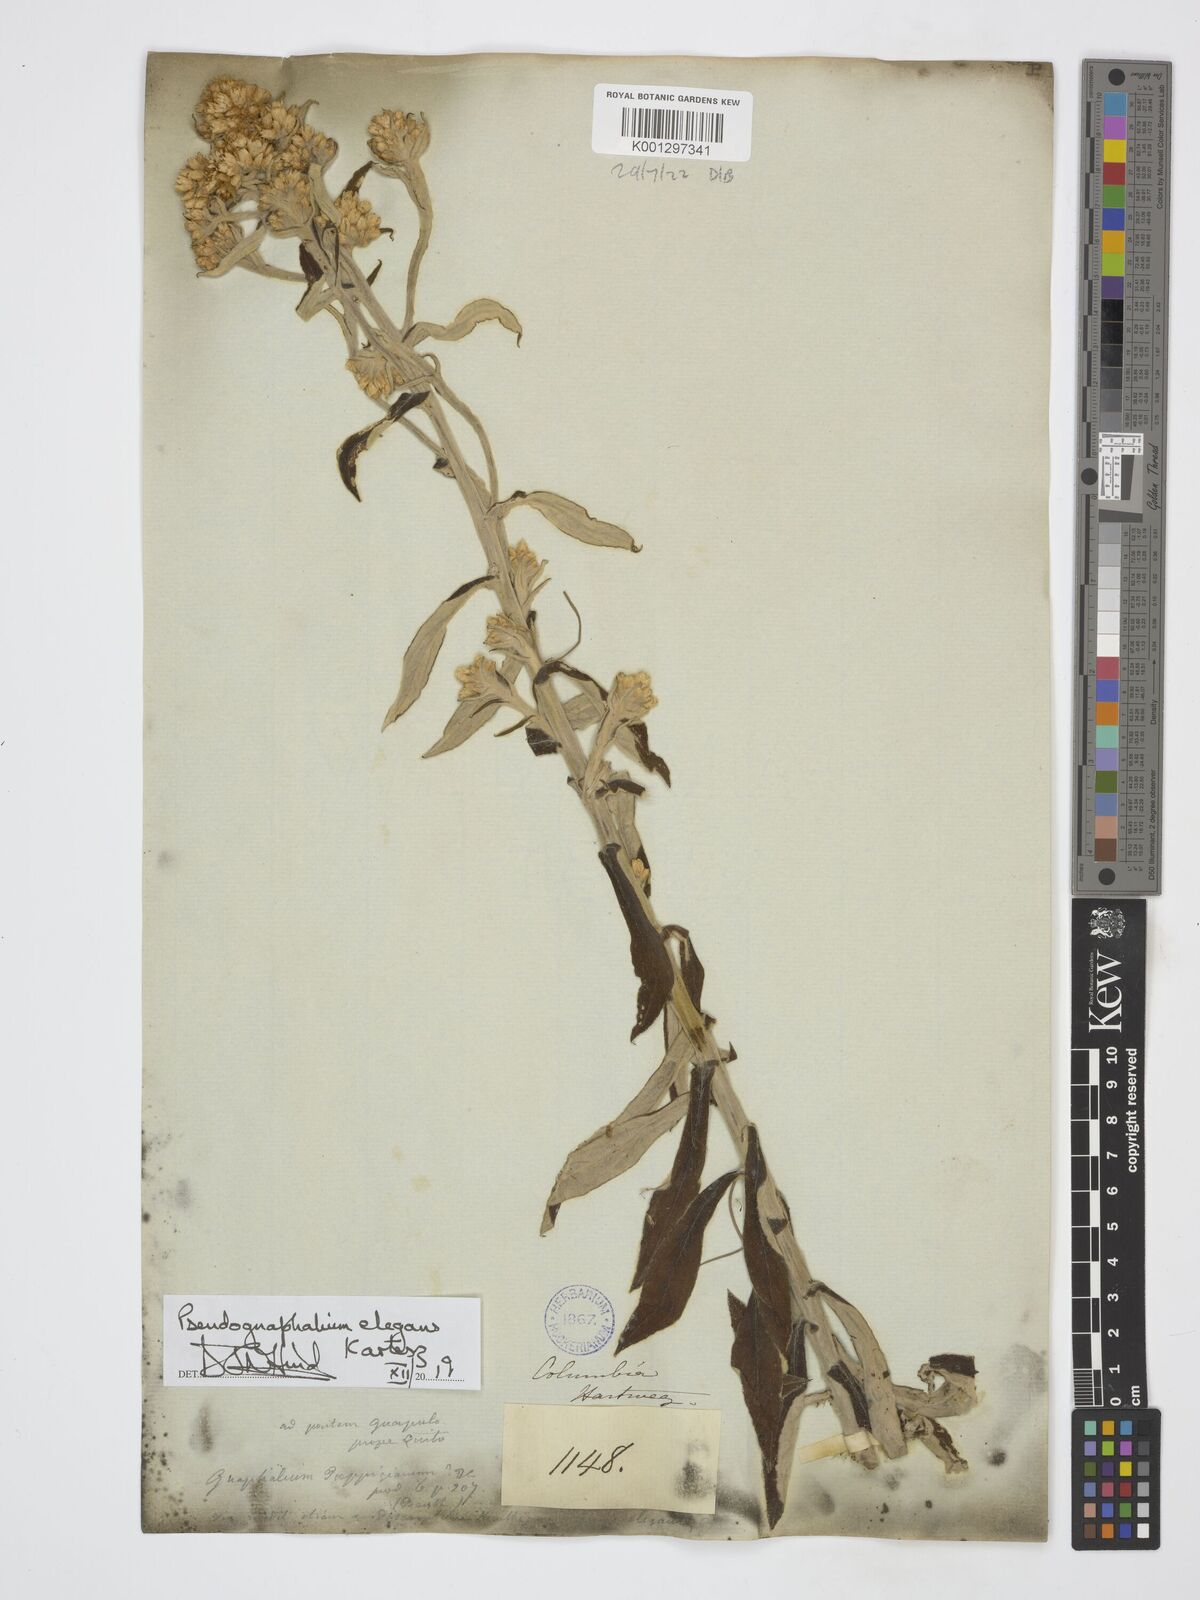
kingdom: Plantae
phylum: Tracheophyta
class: Magnoliopsida
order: Asterales
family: Asteraceae
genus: Pseudognaphalium
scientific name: Pseudognaphalium domingense
